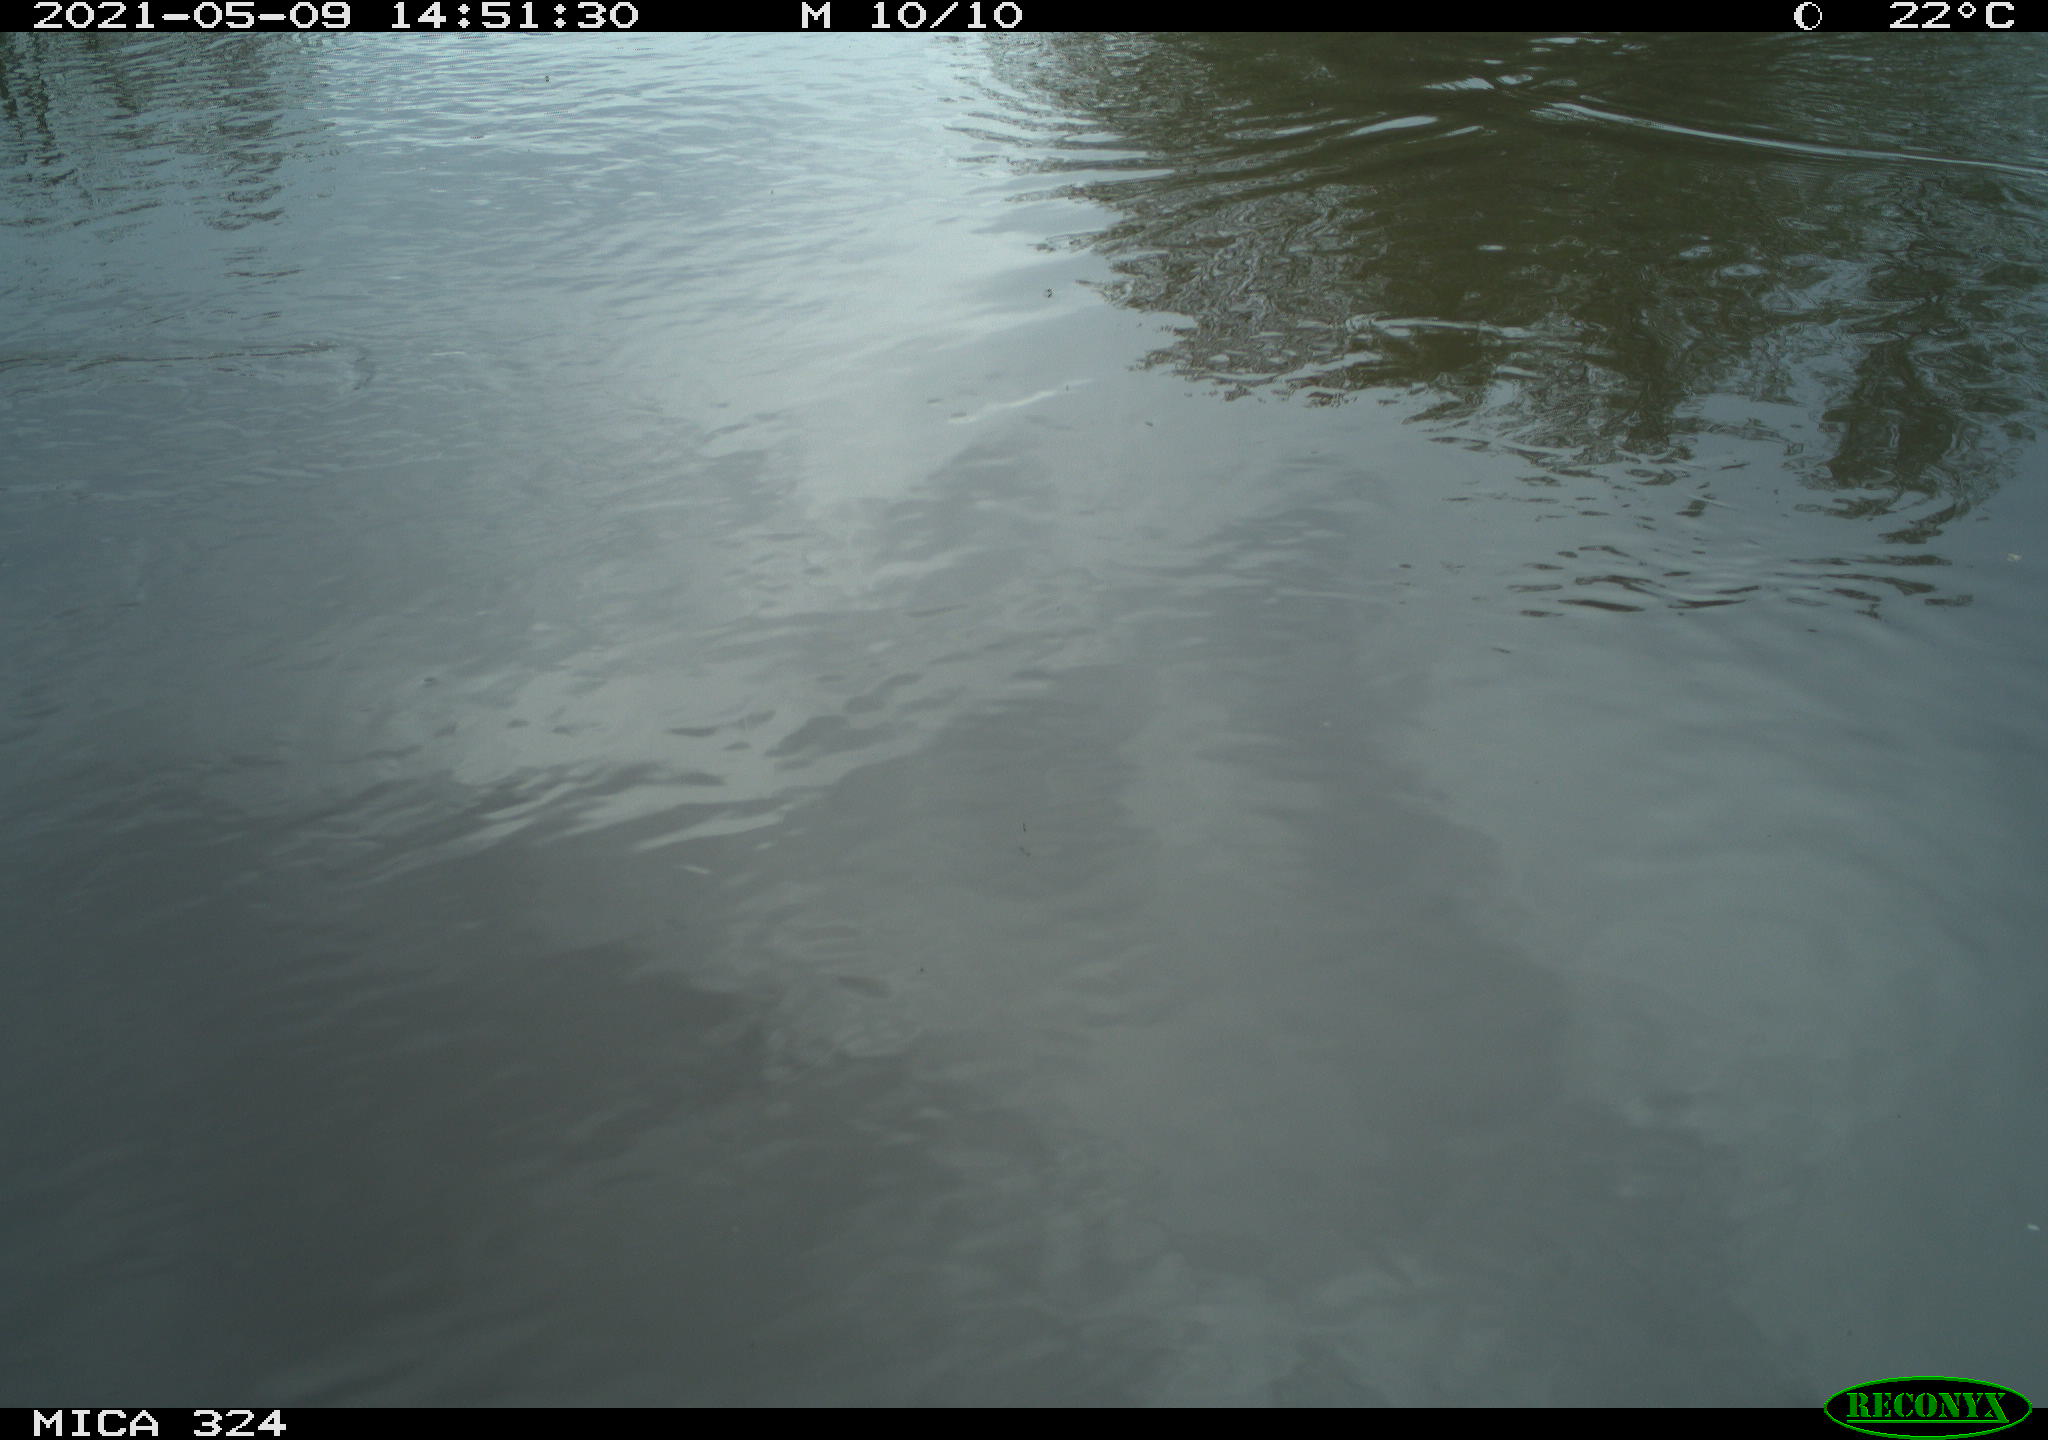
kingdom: Animalia
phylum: Chordata
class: Aves
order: Gruiformes
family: Rallidae
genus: Gallinula
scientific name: Gallinula chloropus
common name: Common moorhen
